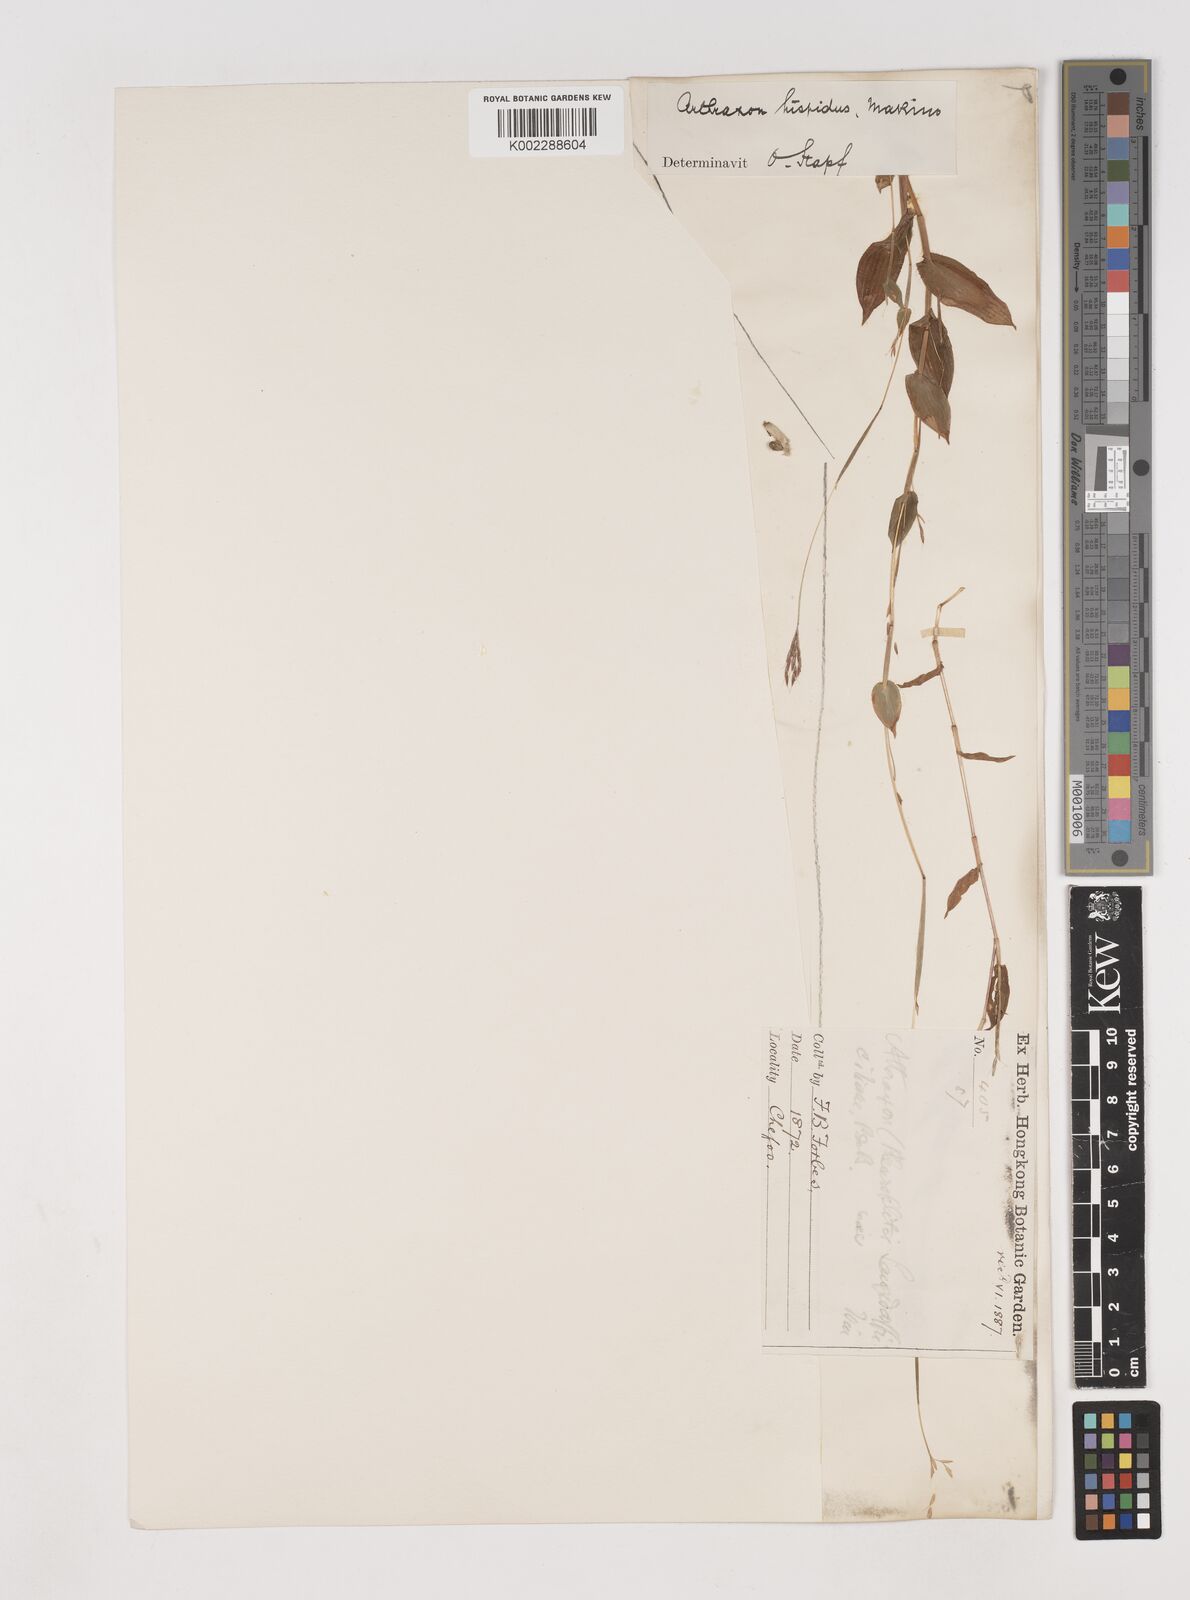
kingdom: Plantae
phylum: Tracheophyta
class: Liliopsida
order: Poales
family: Poaceae
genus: Arthraxon
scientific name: Arthraxon hispidus
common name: Small carpgrass
